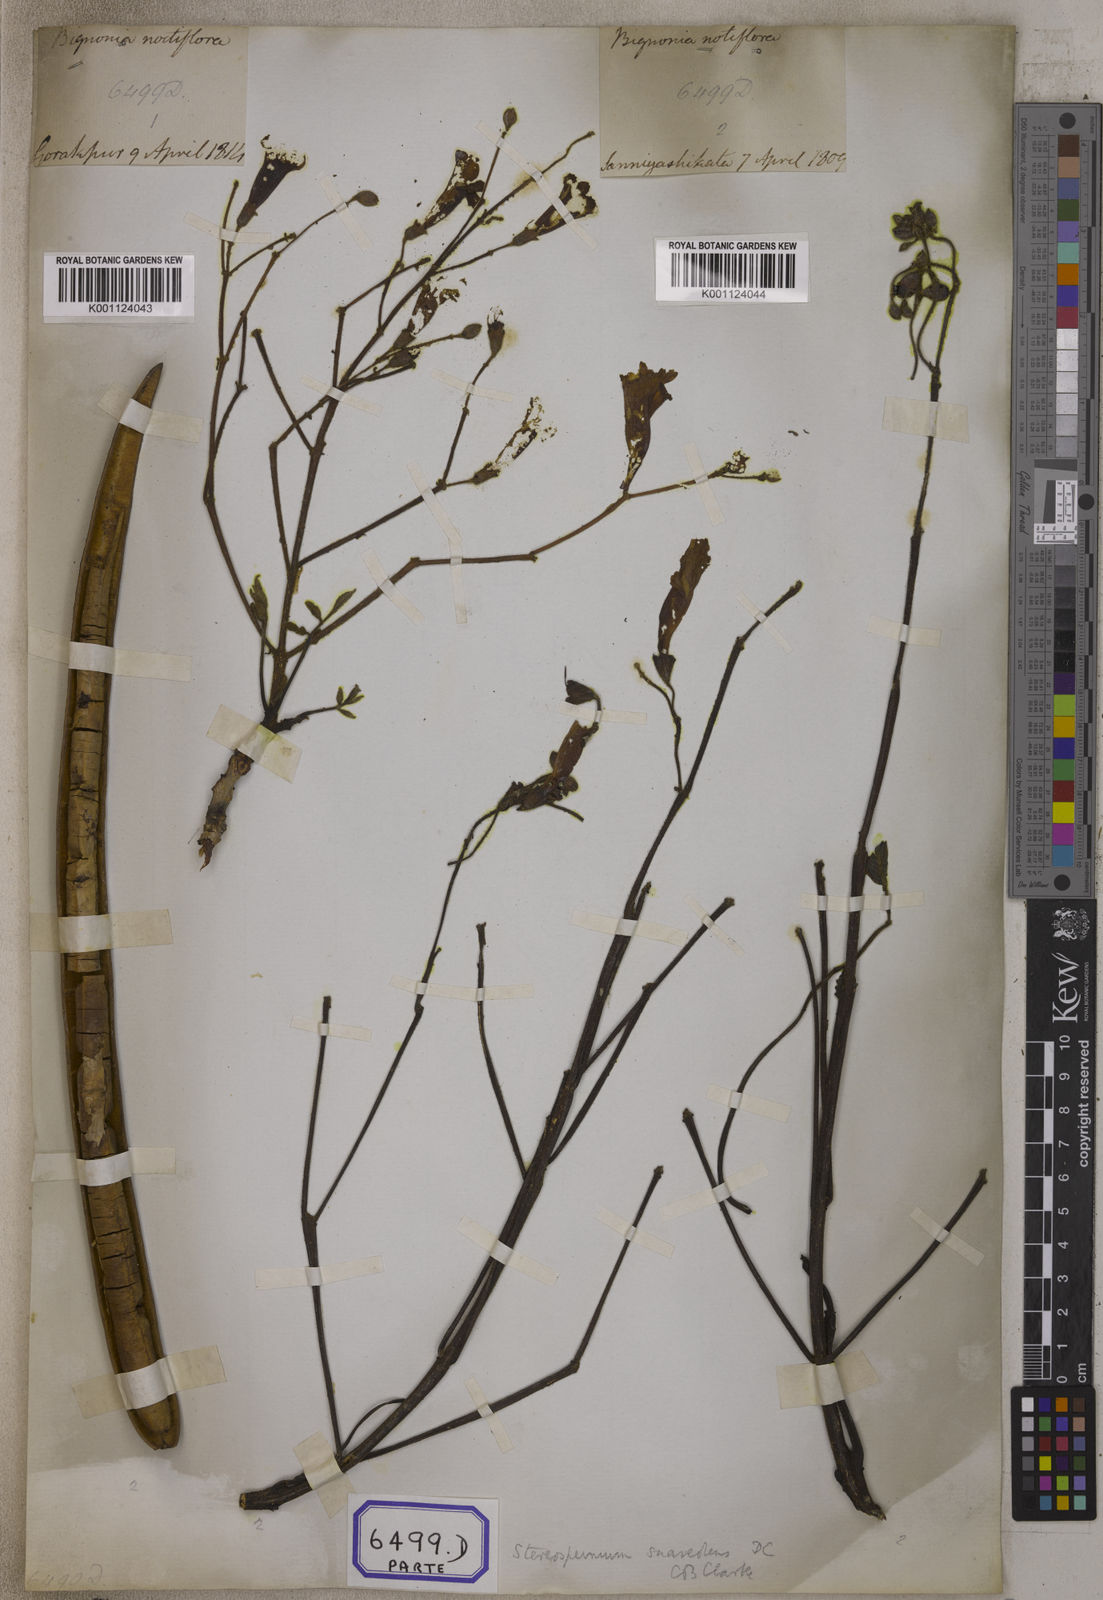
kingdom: Plantae
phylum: Tracheophyta
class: Magnoliopsida
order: Lamiales
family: Bignoniaceae
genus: Stereospermum
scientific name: Stereospermum chelonoides
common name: Fragrant padritree
